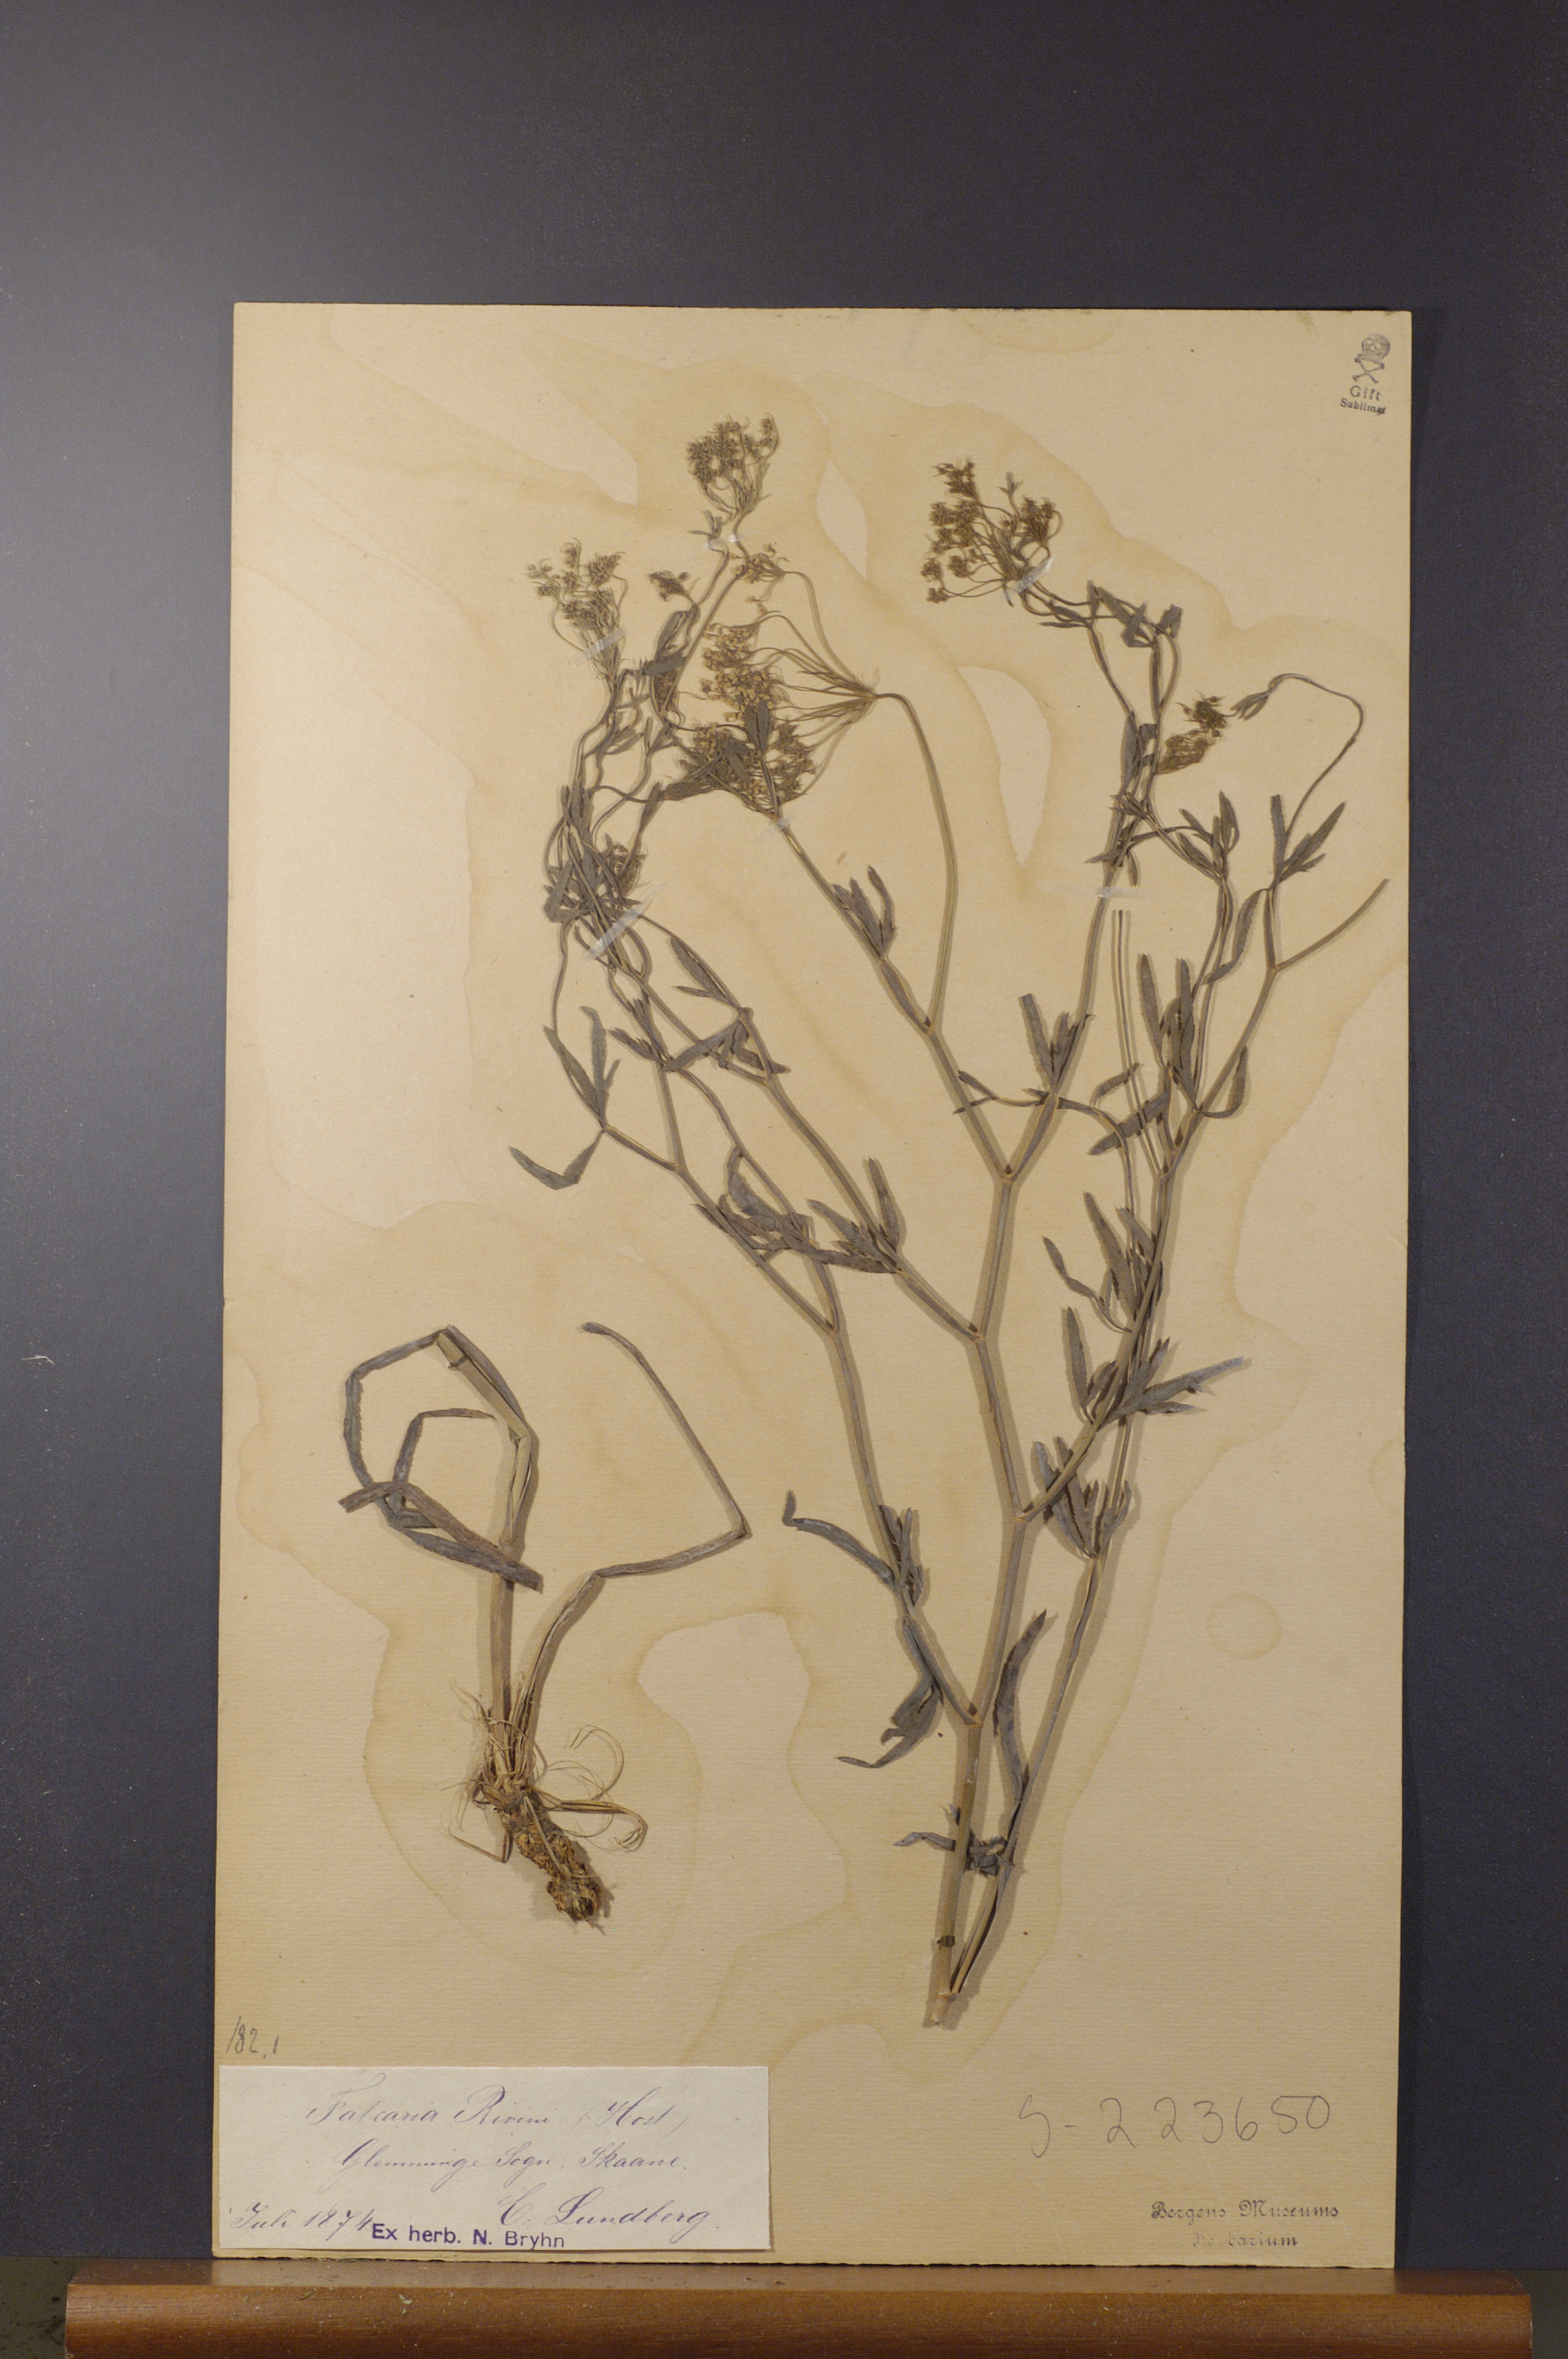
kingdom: Plantae
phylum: Tracheophyta
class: Magnoliopsida
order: Apiales
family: Apiaceae
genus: Falcaria
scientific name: Falcaria vulgaris
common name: Longleaf
